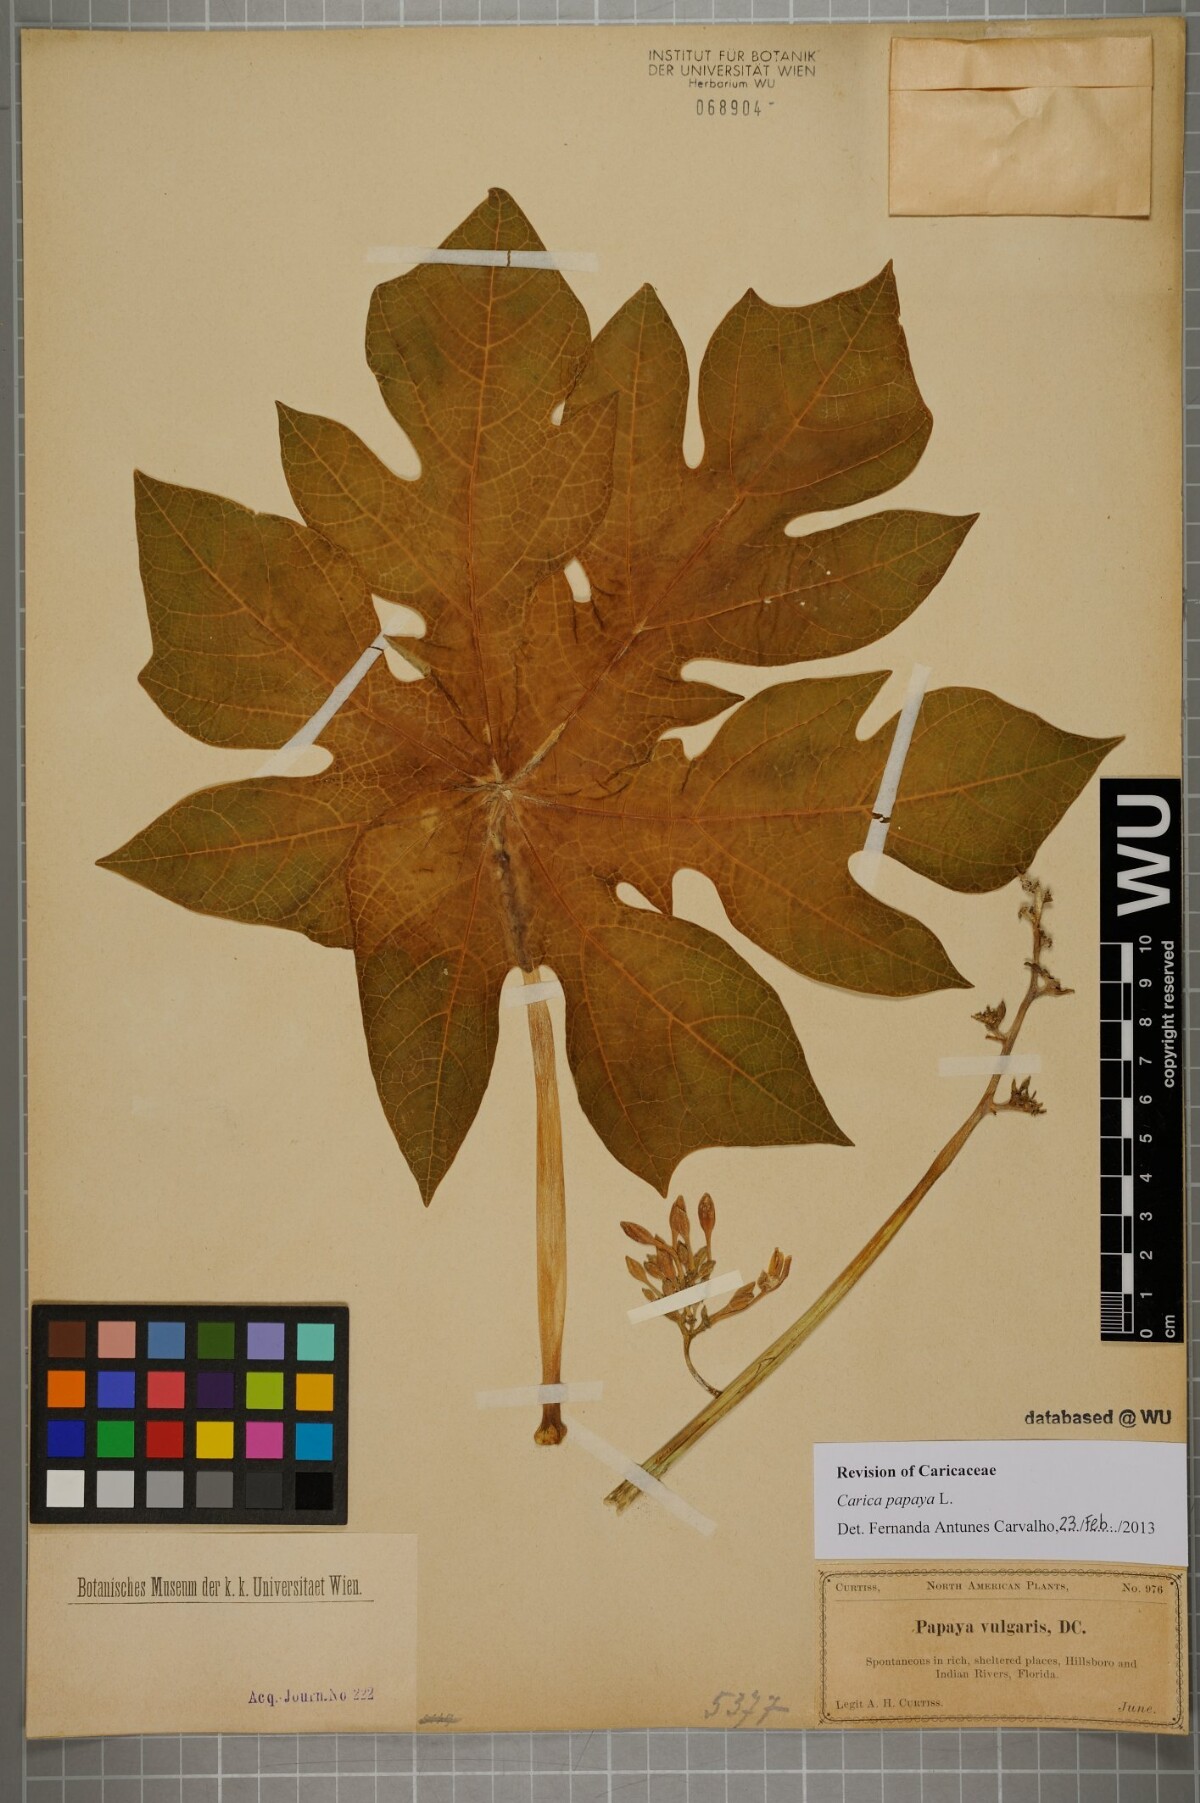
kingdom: Plantae
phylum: Tracheophyta
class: Magnoliopsida
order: Brassicales
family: Caricaceae
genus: Carica
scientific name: Carica papaya
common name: Papaya
